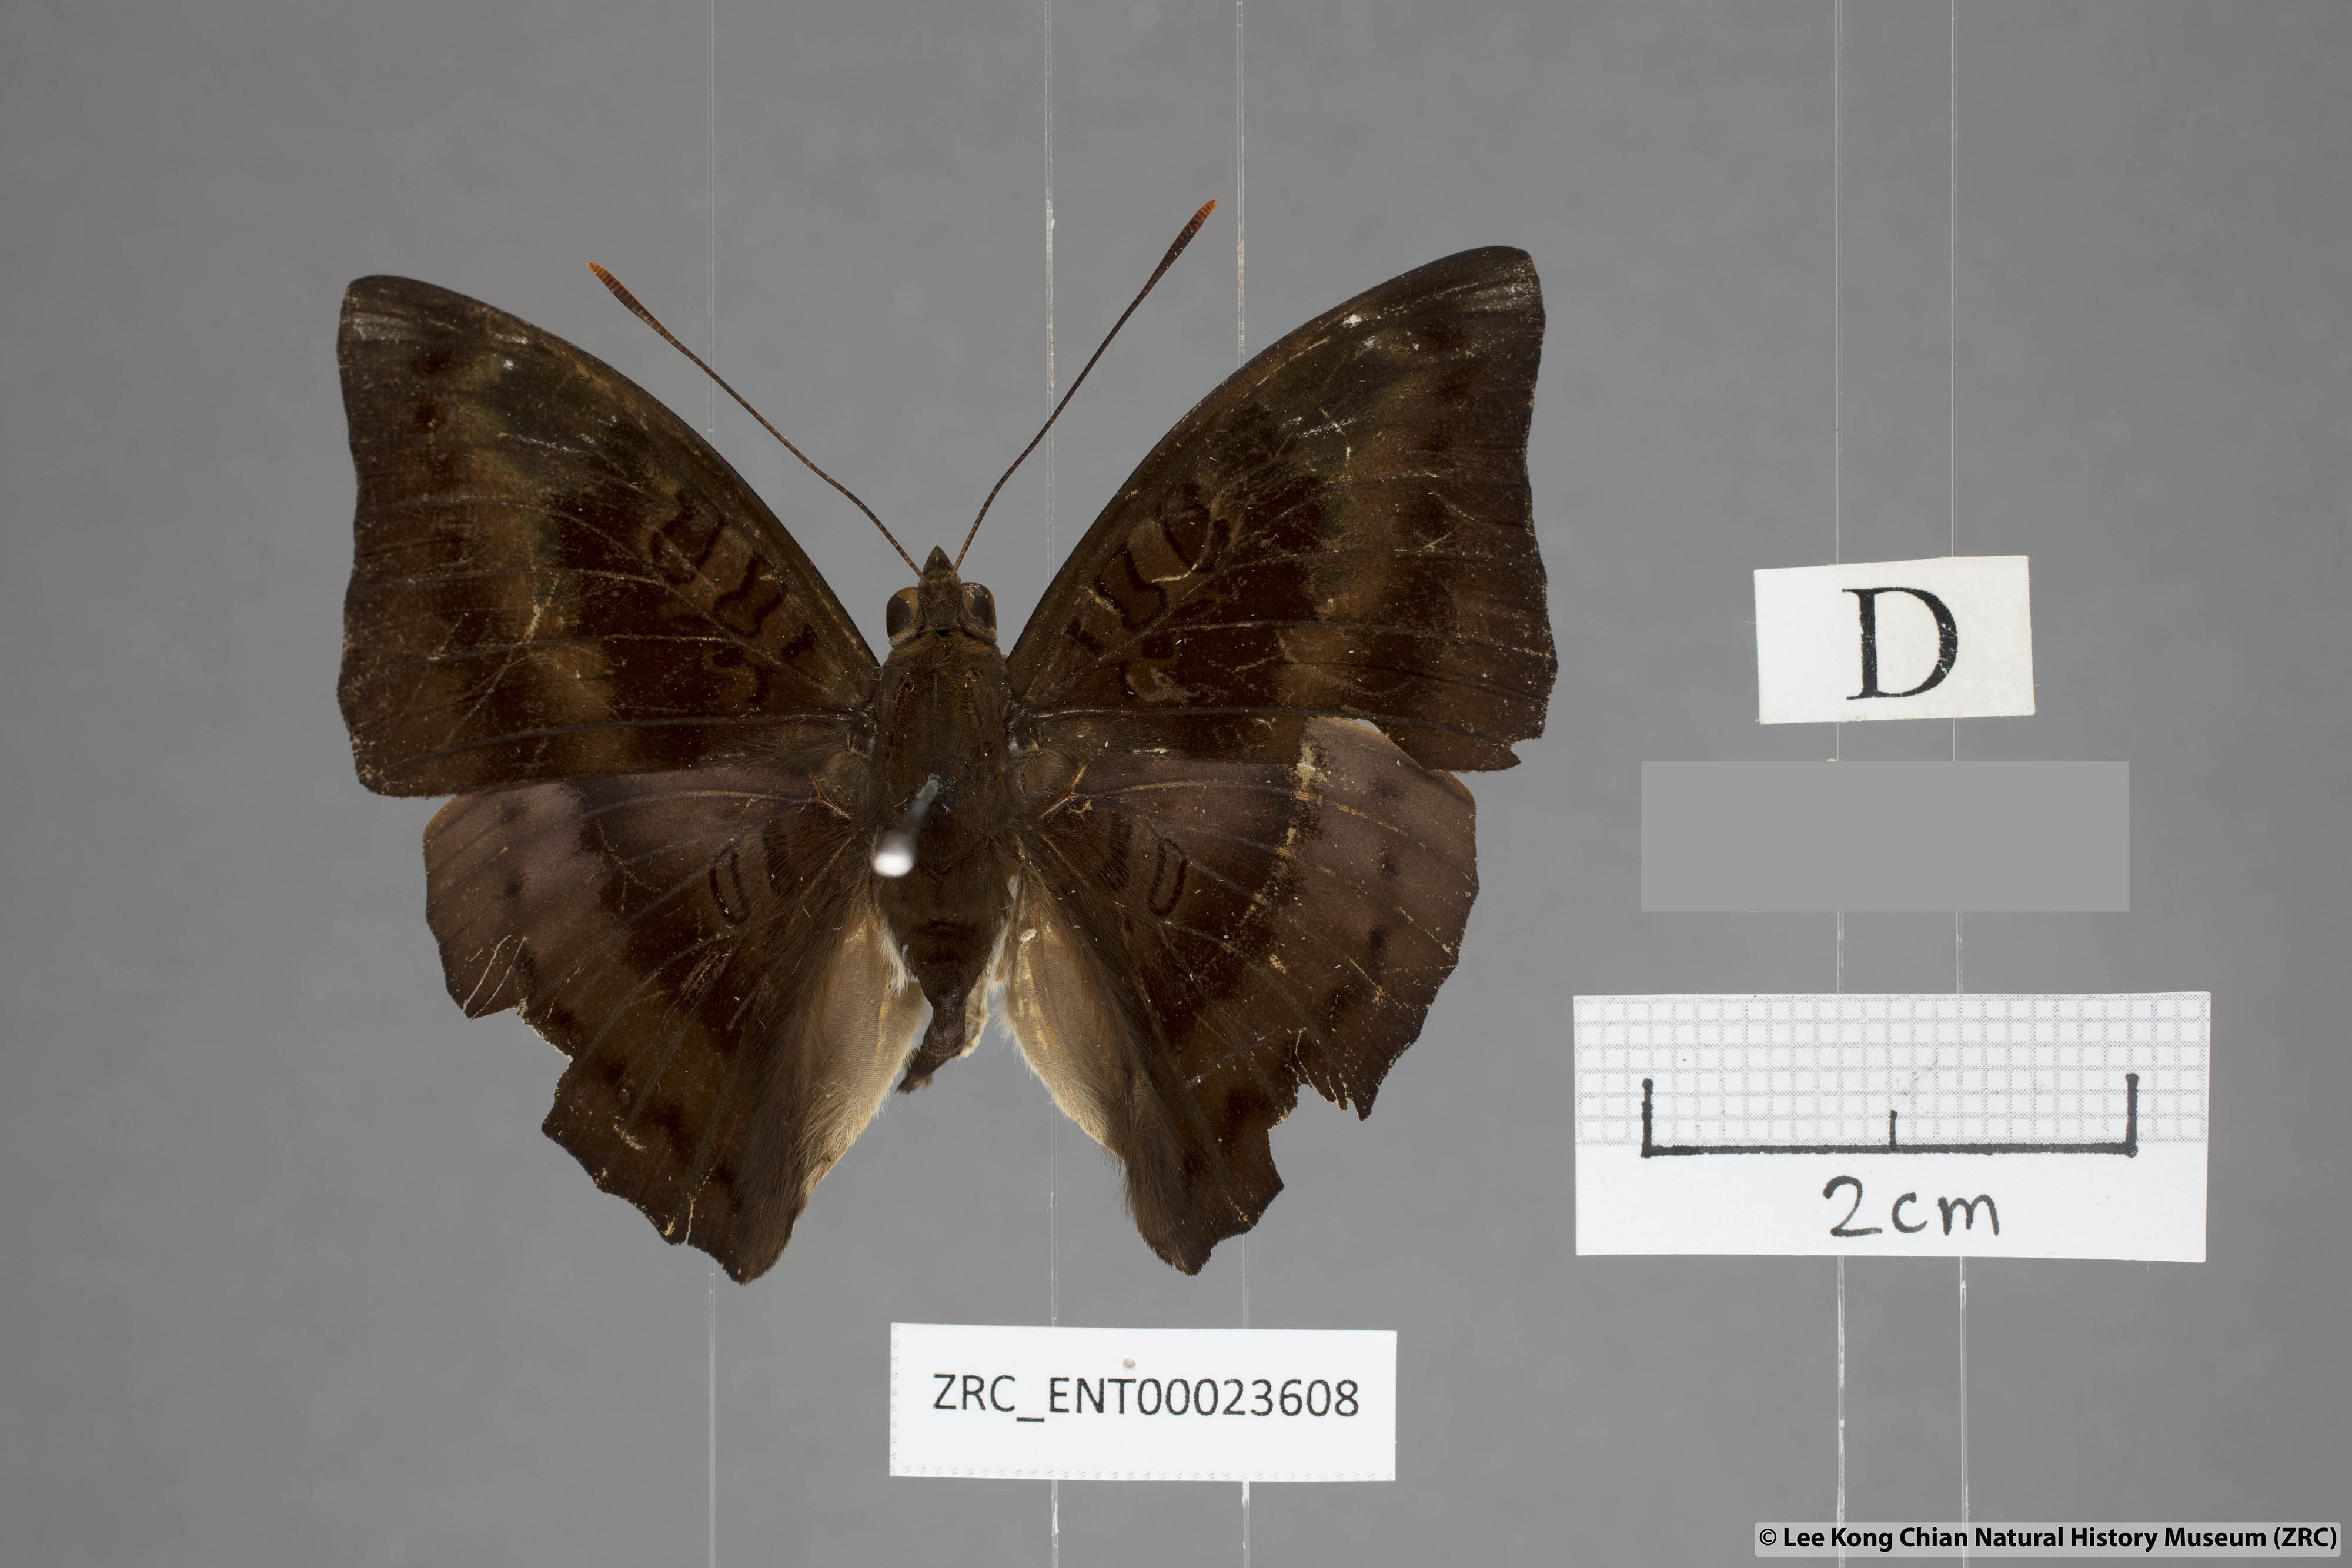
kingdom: Animalia
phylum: Arthropoda
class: Insecta
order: Lepidoptera
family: Nymphalidae
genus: Euthalia
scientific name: Euthalia alpheda
